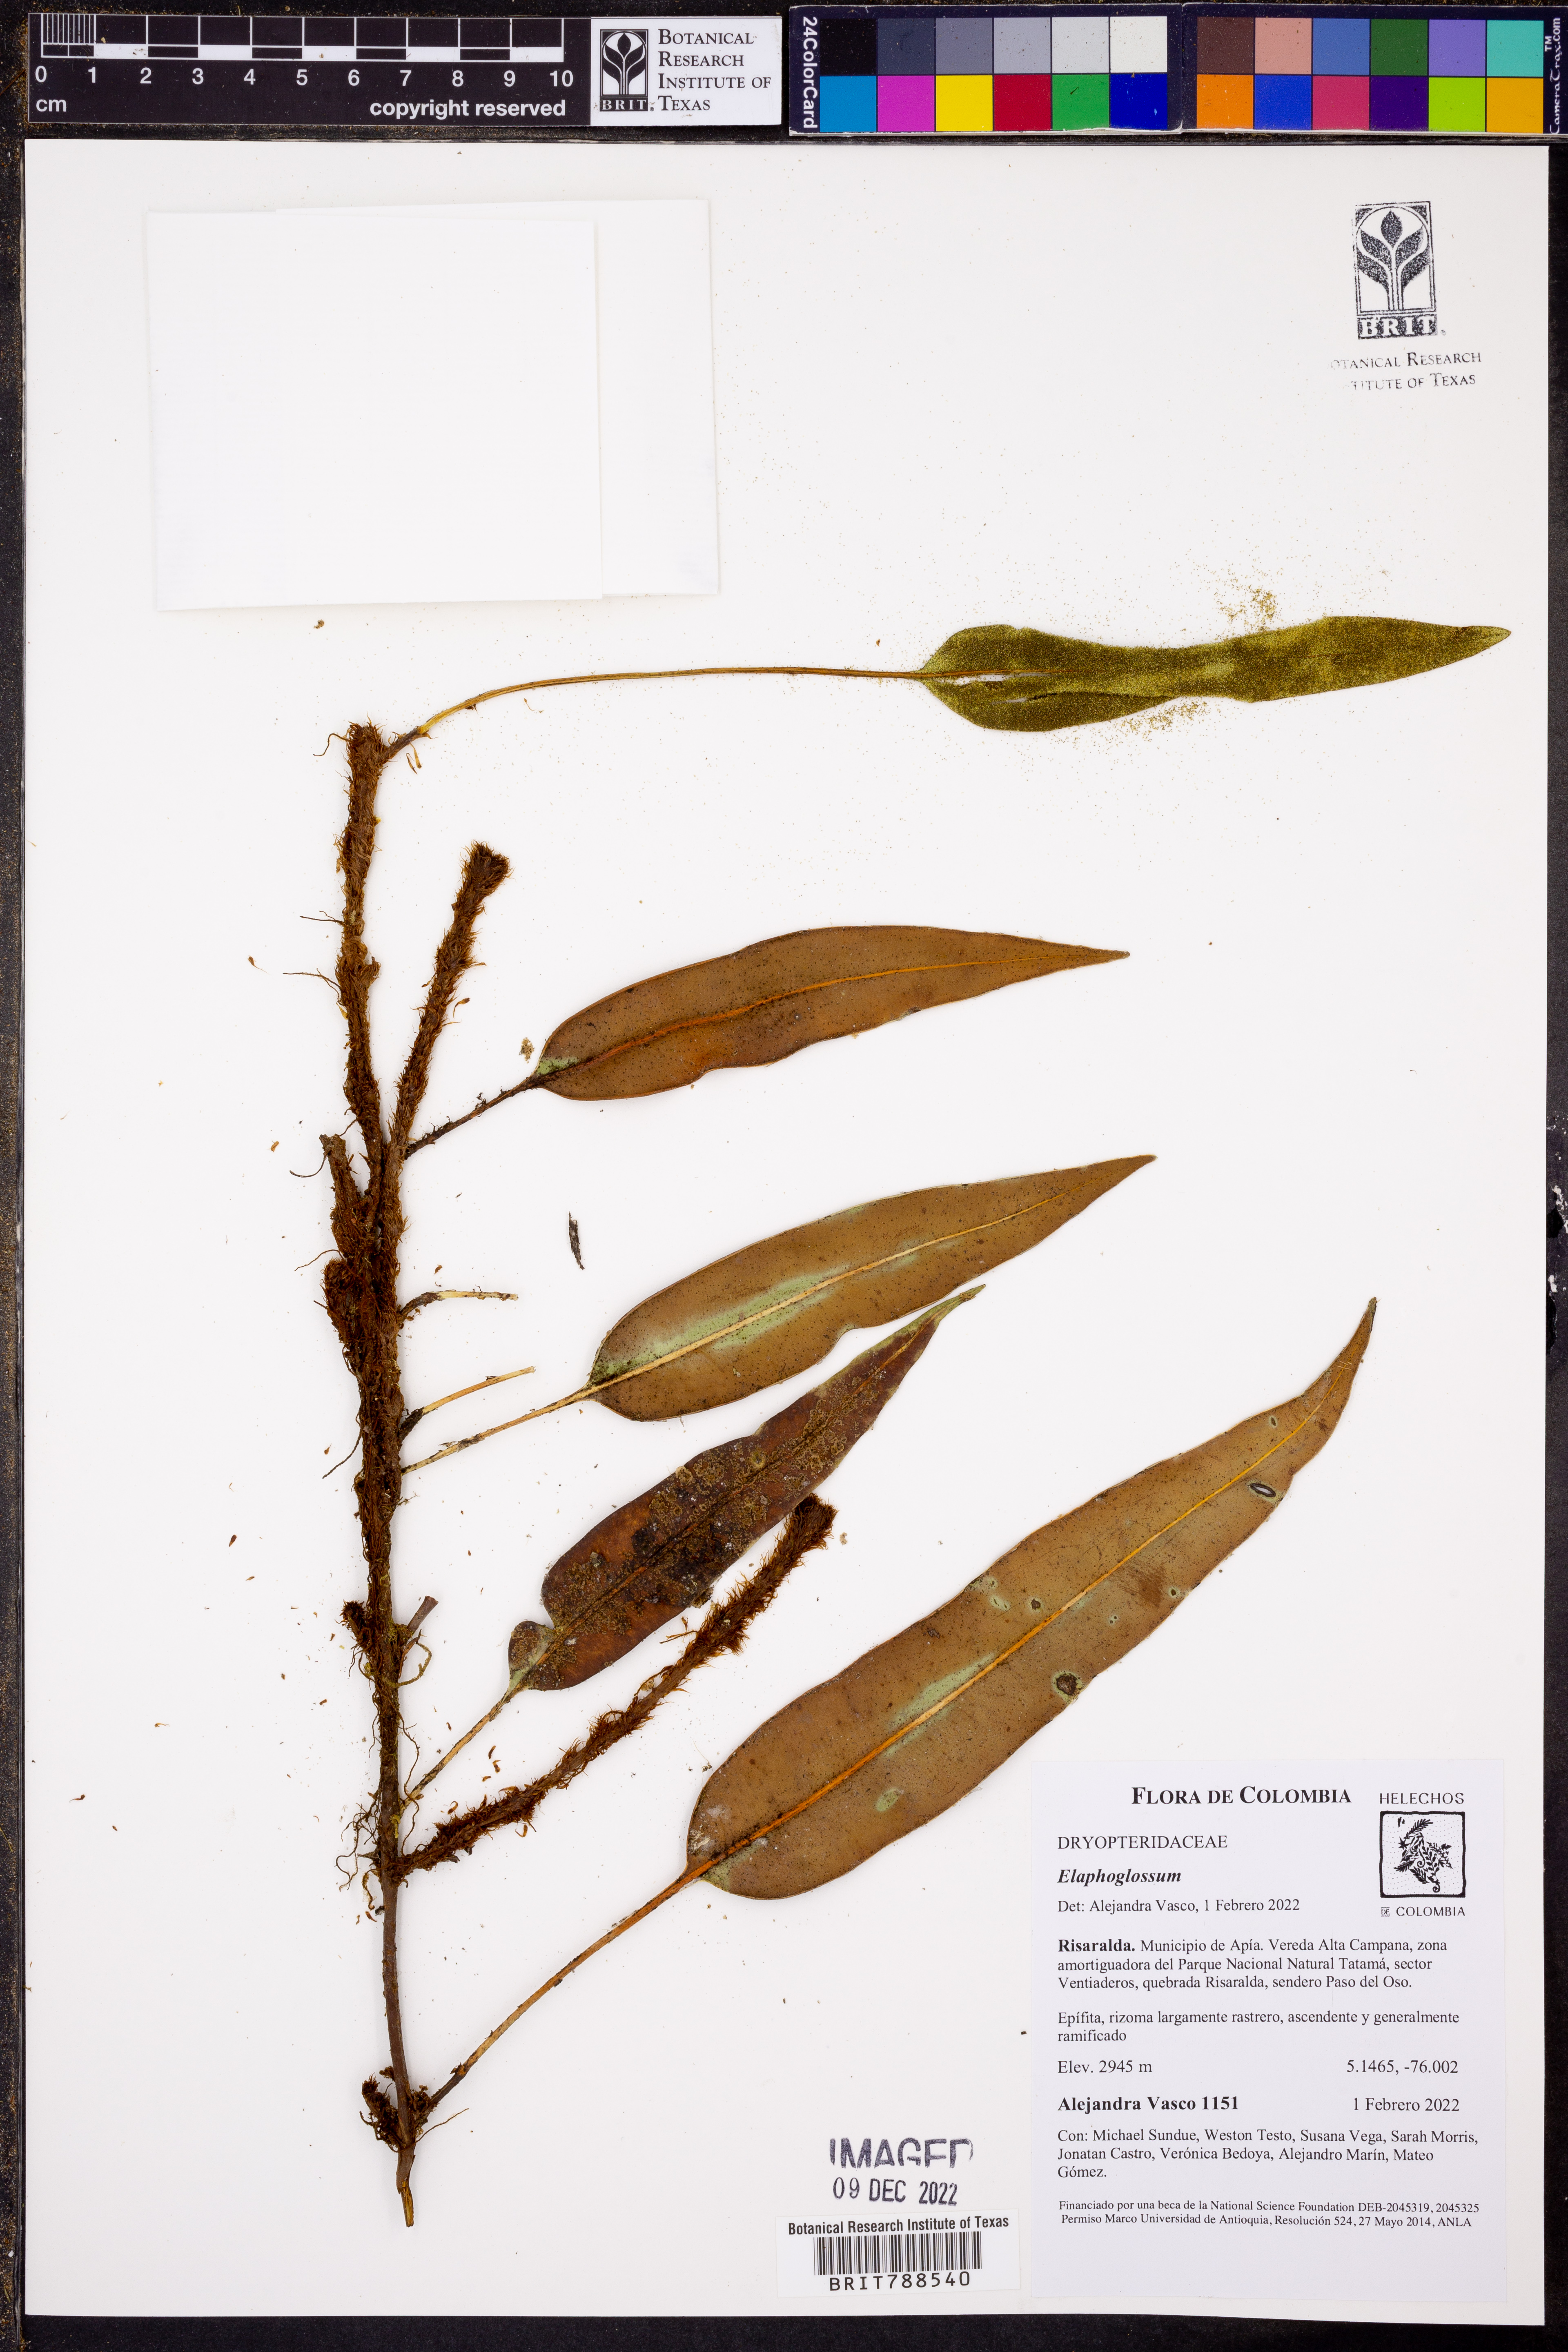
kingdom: Plantae
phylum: Tracheophyta
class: Polypodiopsida
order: Polypodiales
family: Dryopteridaceae
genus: Elaphoglossum
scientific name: Elaphoglossum antioquianum
